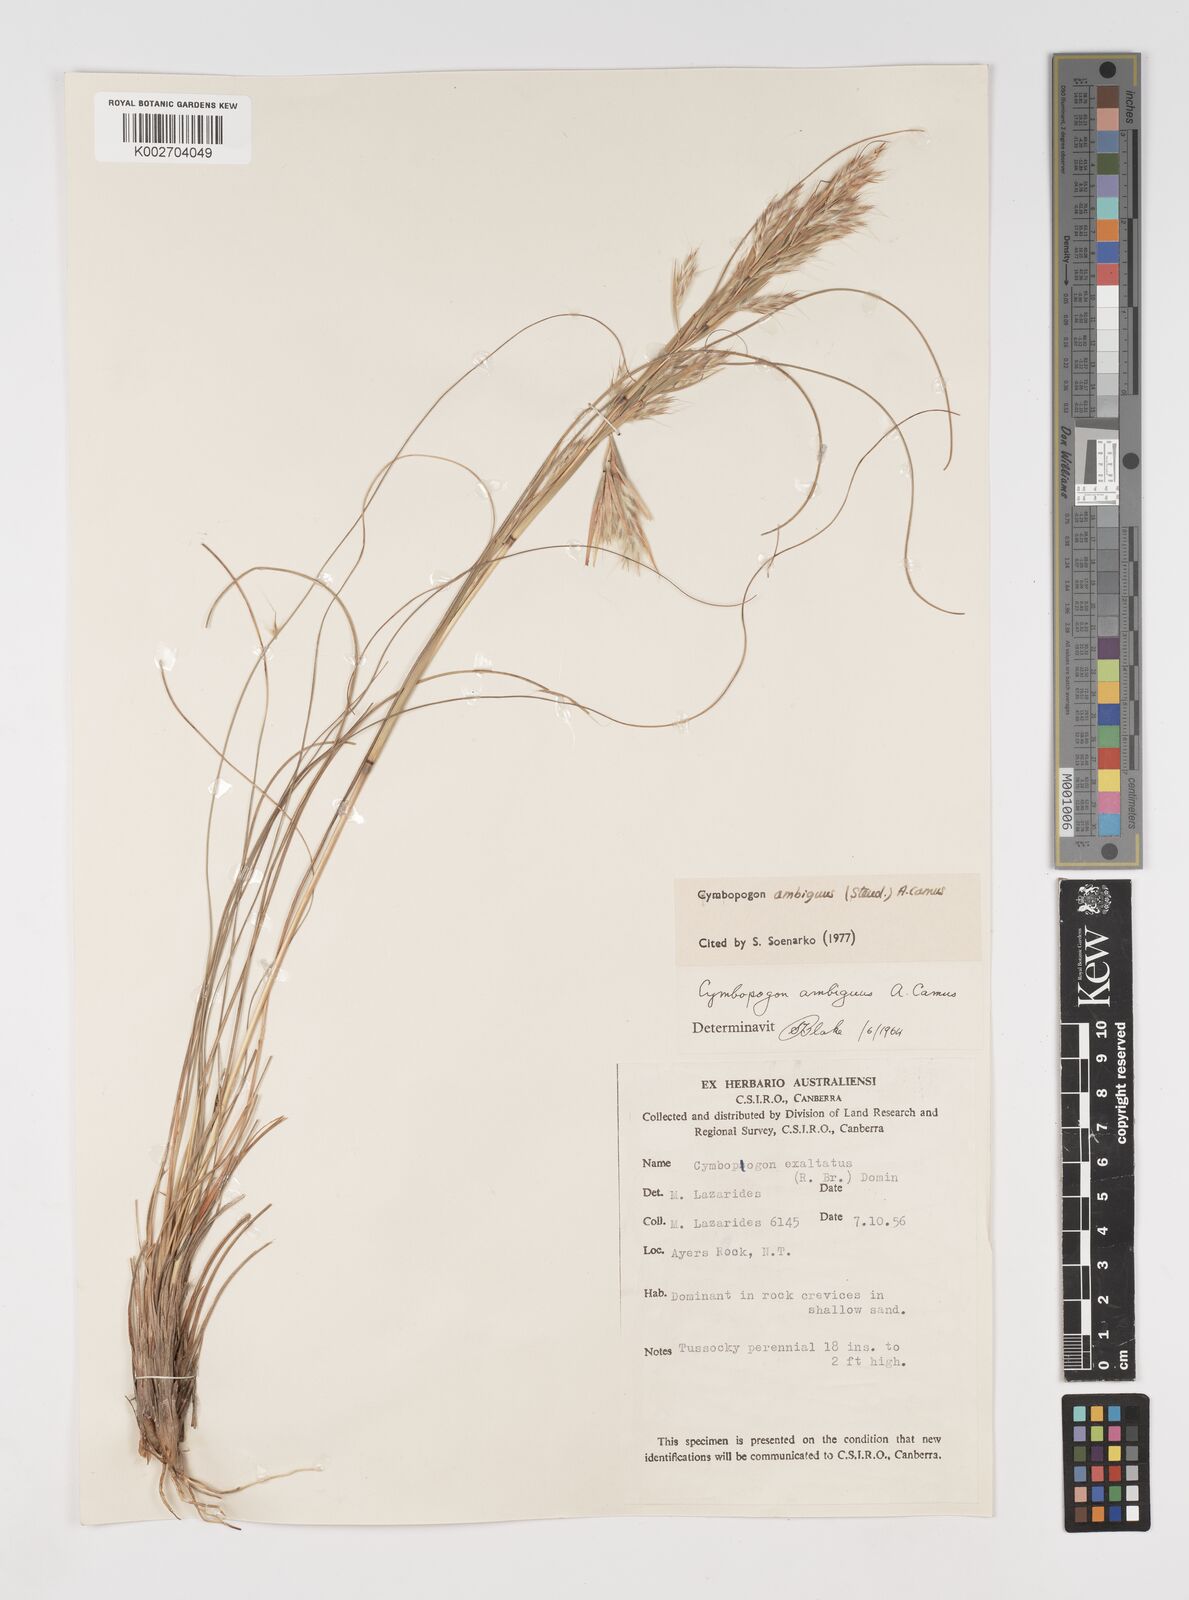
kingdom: Plantae
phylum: Tracheophyta
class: Liliopsida
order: Poales
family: Poaceae
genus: Cymbopogon
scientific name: Cymbopogon ambiguus
